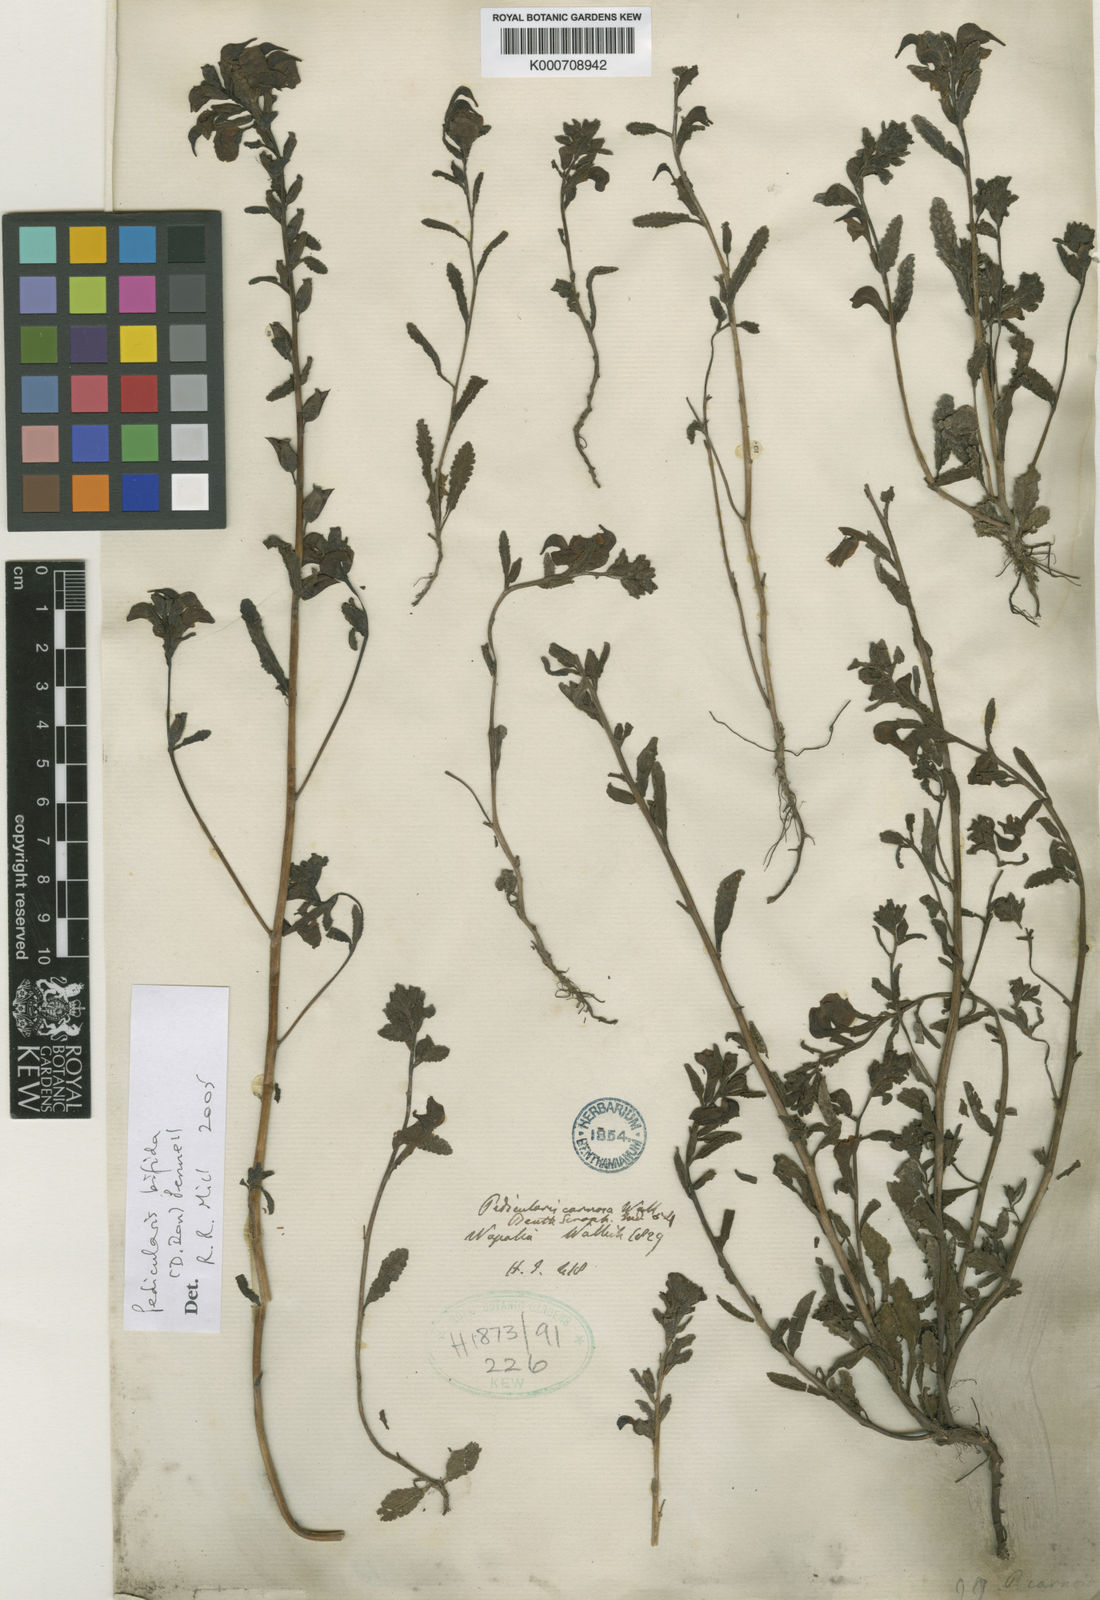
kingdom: Plantae
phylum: Tracheophyta
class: Magnoliopsida
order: Lamiales
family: Orobanchaceae
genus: Pedicularis
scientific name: Pedicularis bifida
